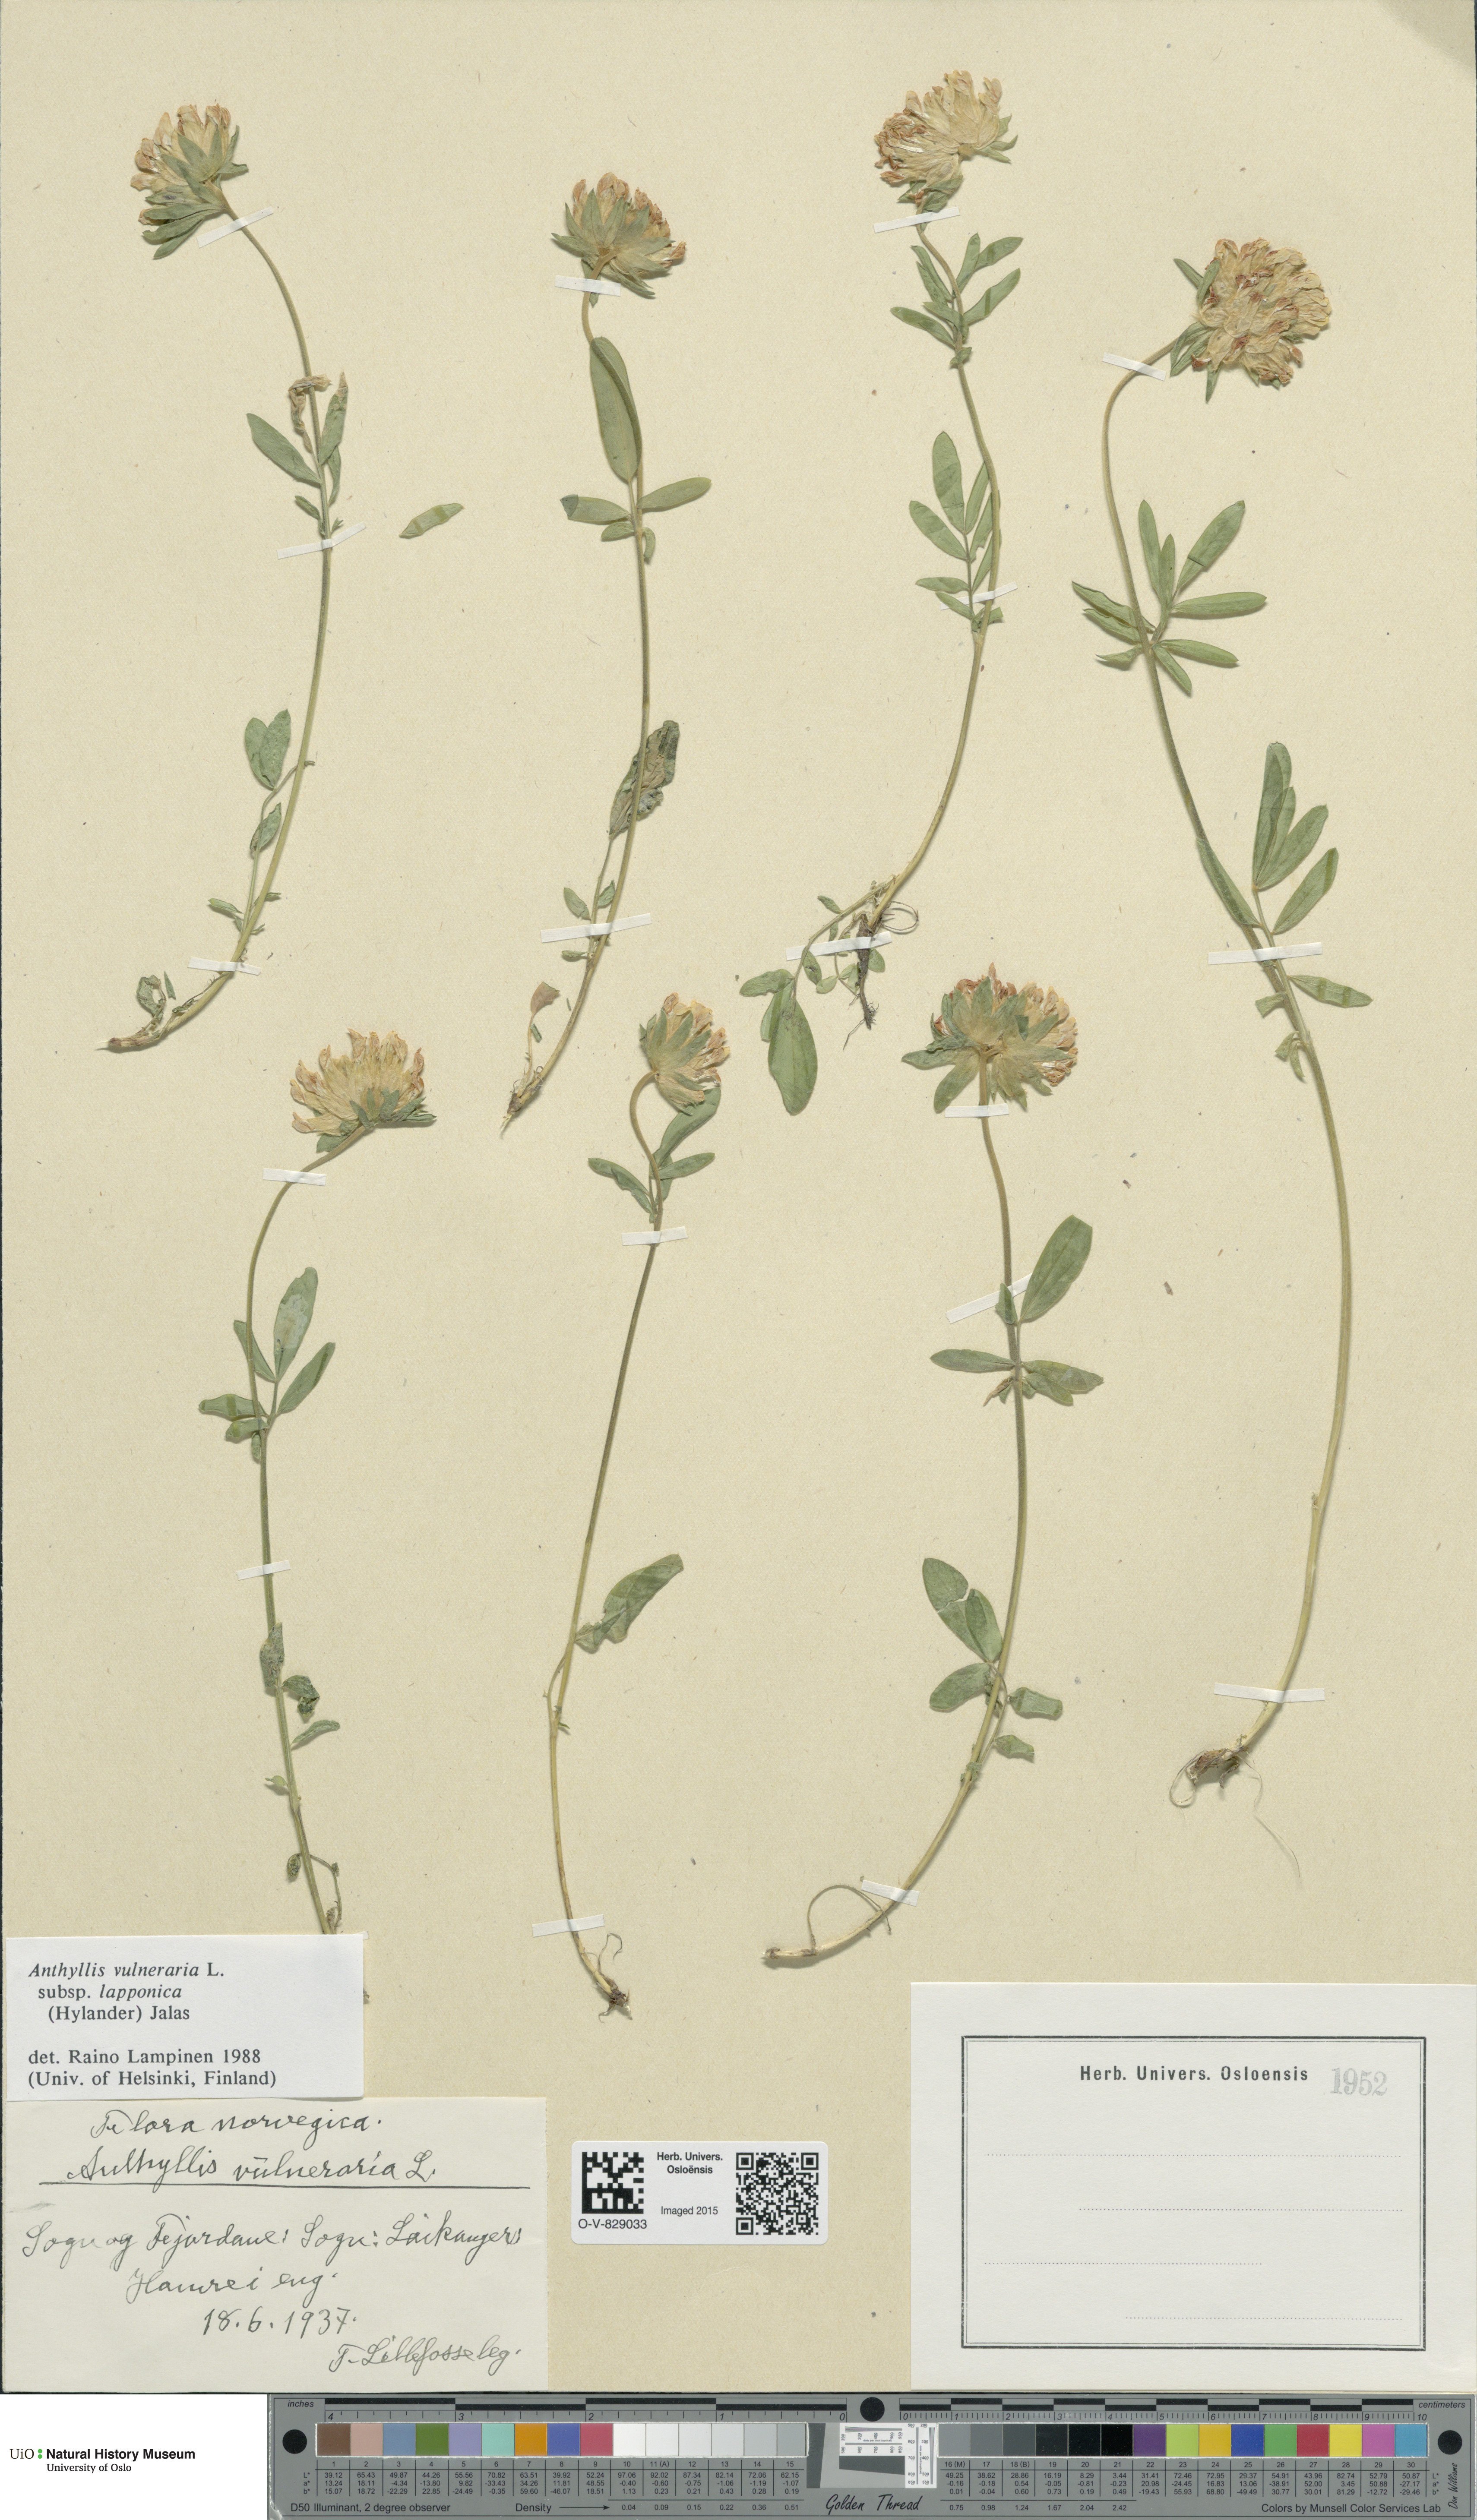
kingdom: Plantae
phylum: Tracheophyta
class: Magnoliopsida
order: Fabales
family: Fabaceae
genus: Anthyllis
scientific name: Anthyllis vulneraria
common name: Kidney vetch
